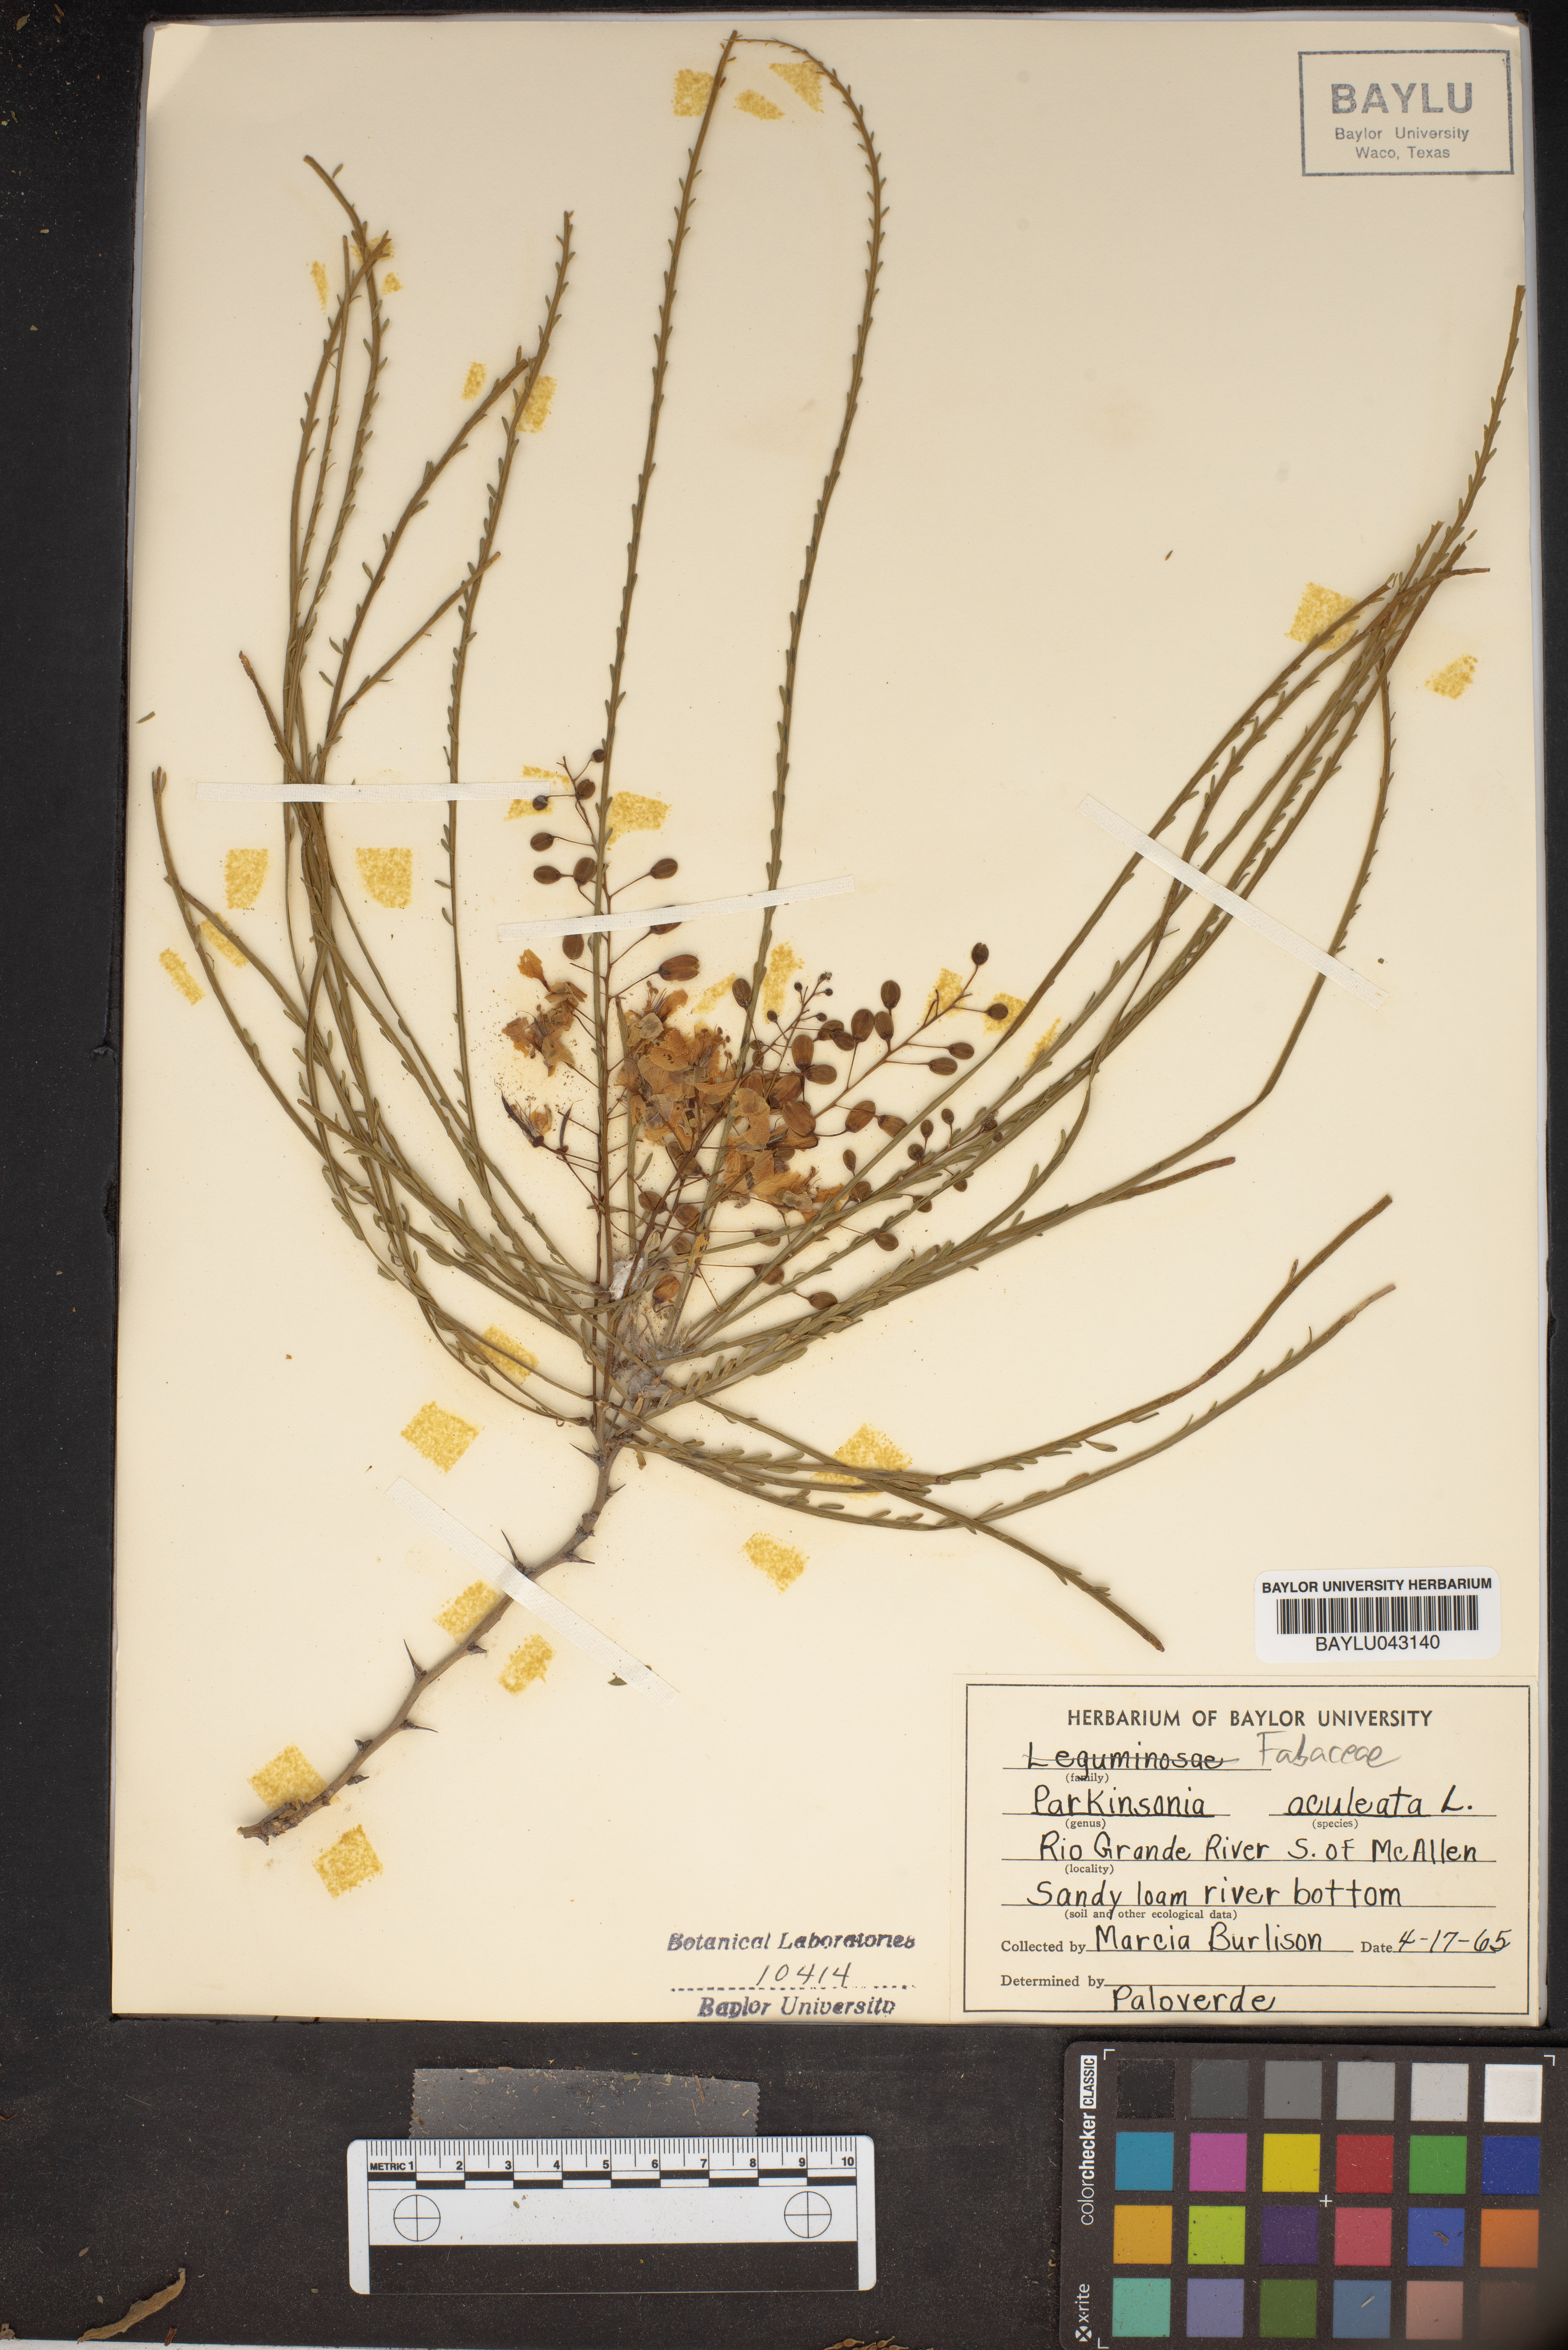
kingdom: Plantae
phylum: Tracheophyta
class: Magnoliopsida
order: Fabales
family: Fabaceae
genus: Parkinsonia
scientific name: Parkinsonia aculeata
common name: Jerusalem thorn
